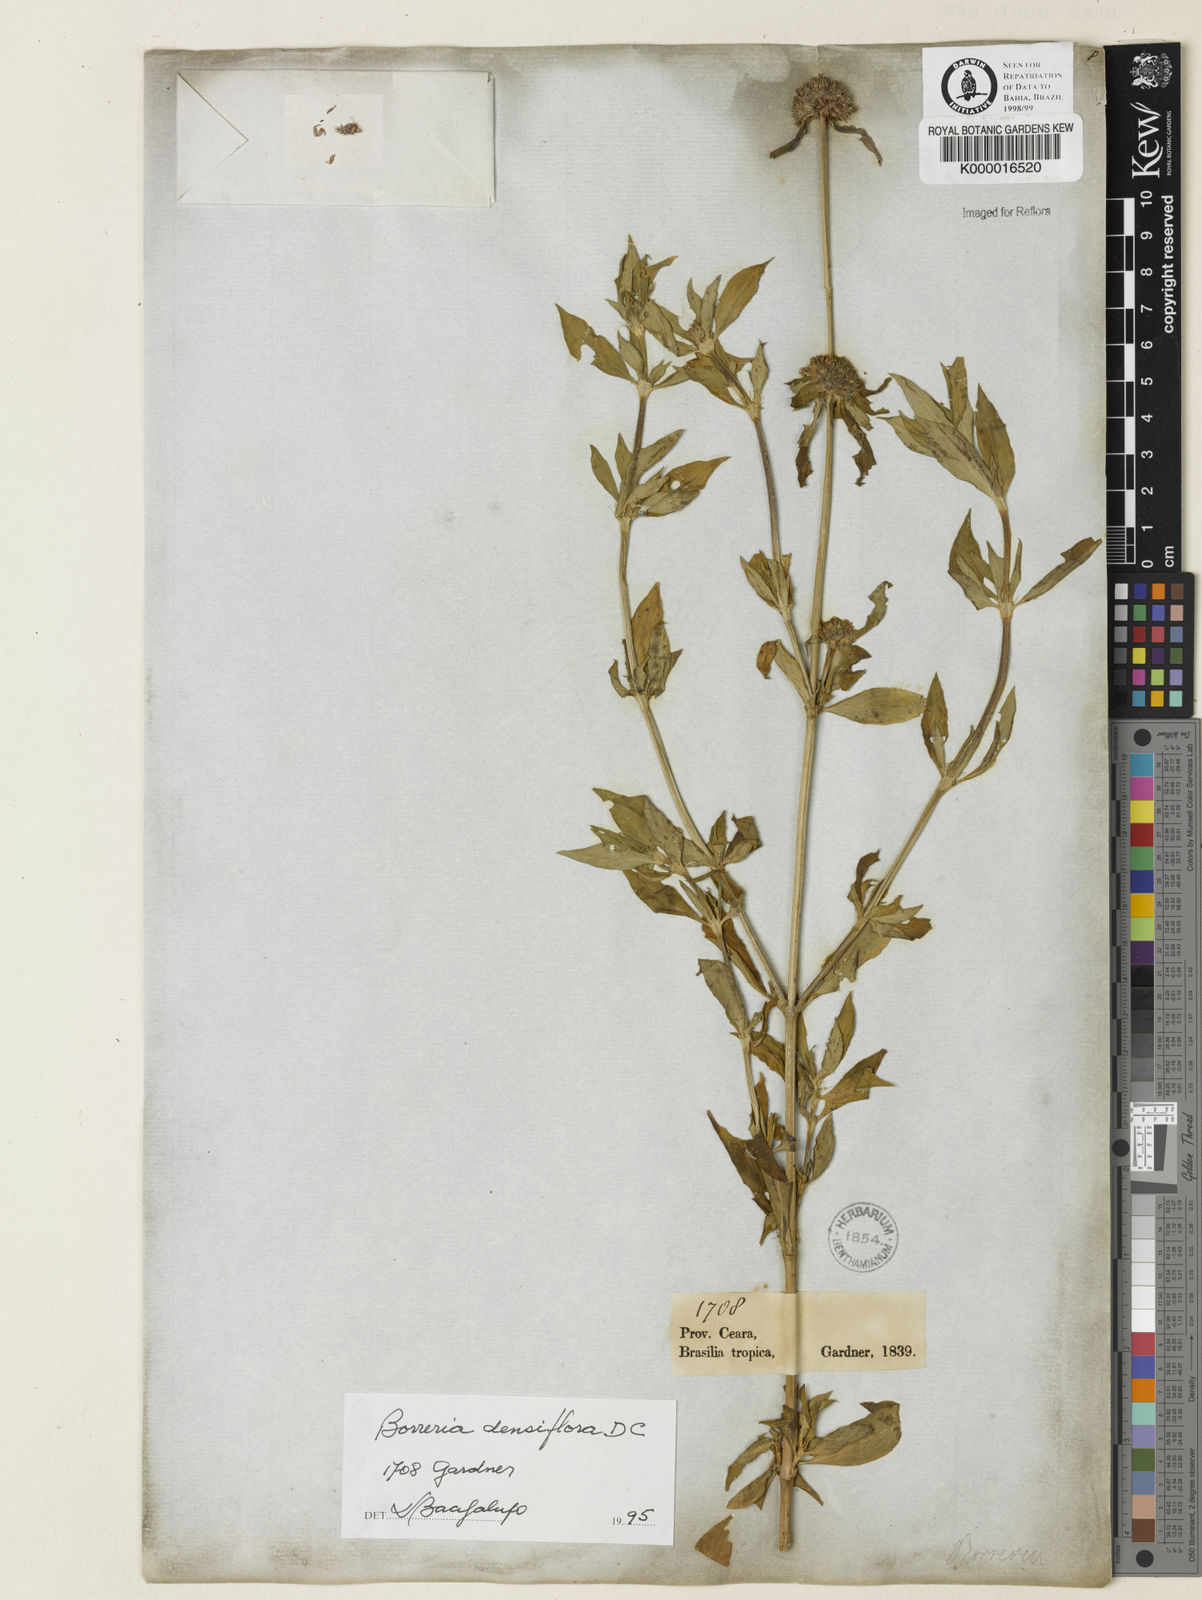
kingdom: Plantae
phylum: Tracheophyta
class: Magnoliopsida
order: Gentianales
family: Rubiaceae
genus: Spermacoce
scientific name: Spermacoce densiflora
